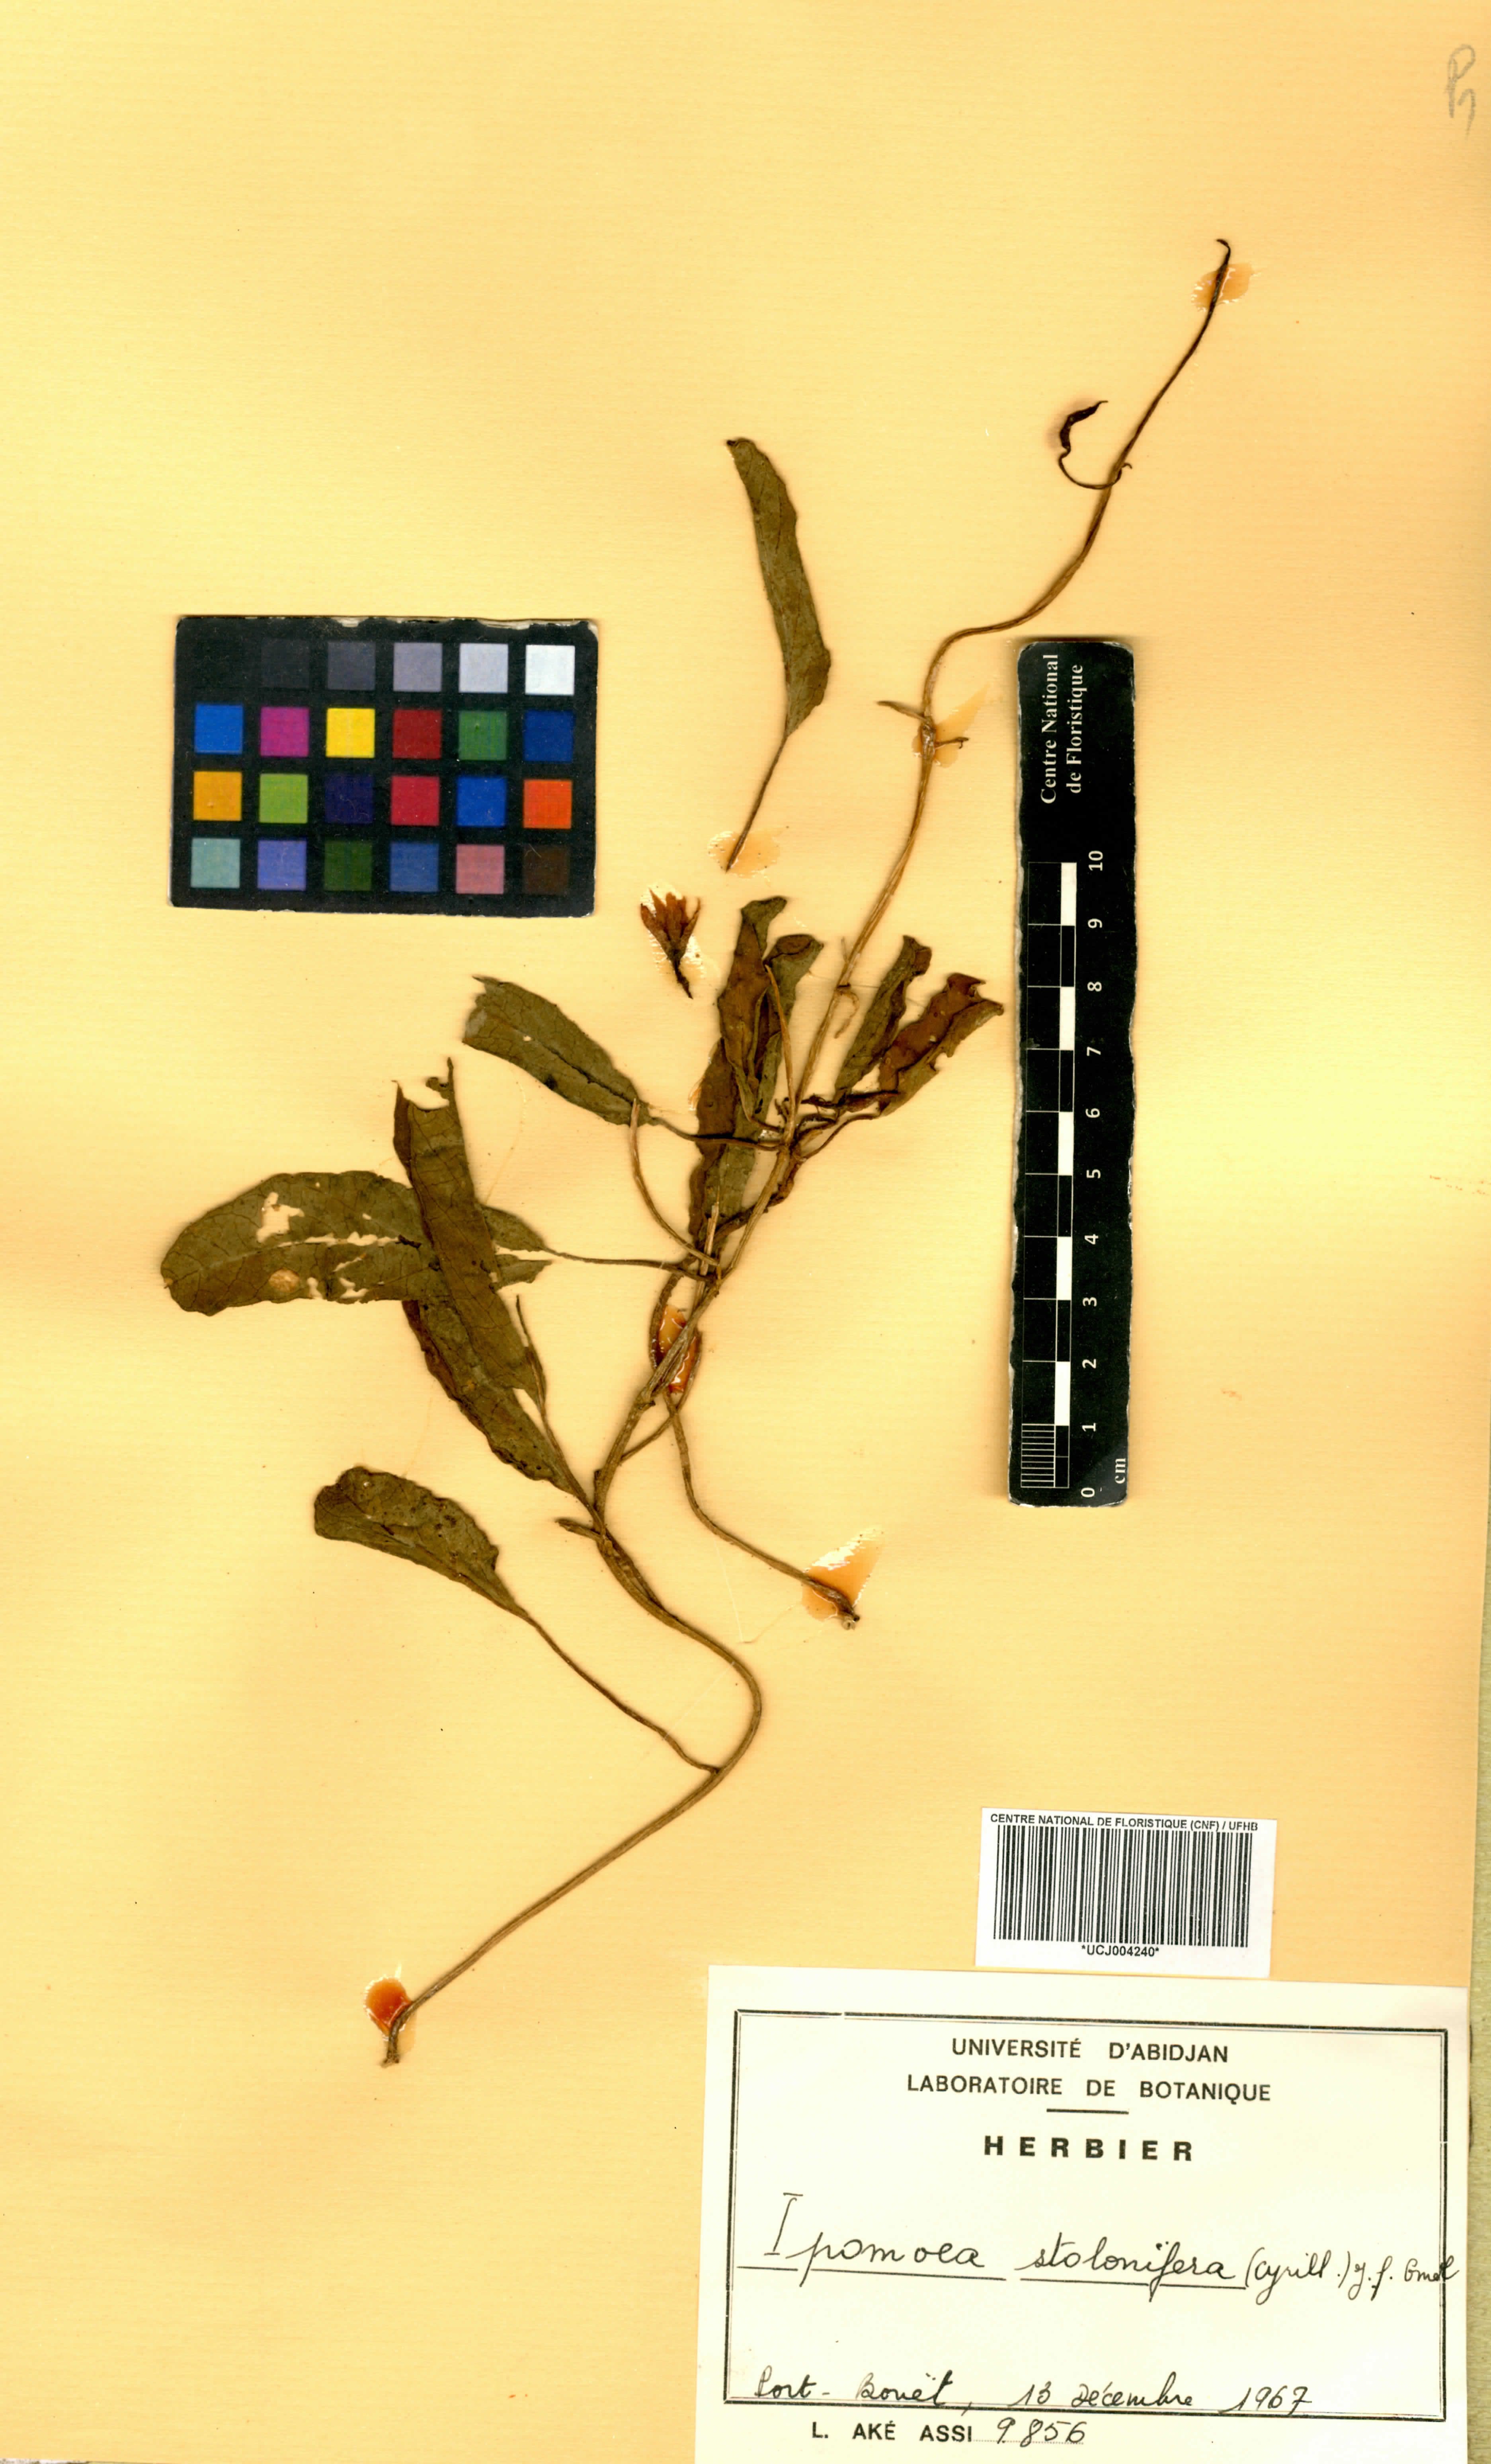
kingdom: Plantae
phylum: Tracheophyta
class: Magnoliopsida
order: Solanales
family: Convolvulaceae
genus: Ipomoea
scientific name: Ipomoea imperati
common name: Fiddle-leaf morning-glory
